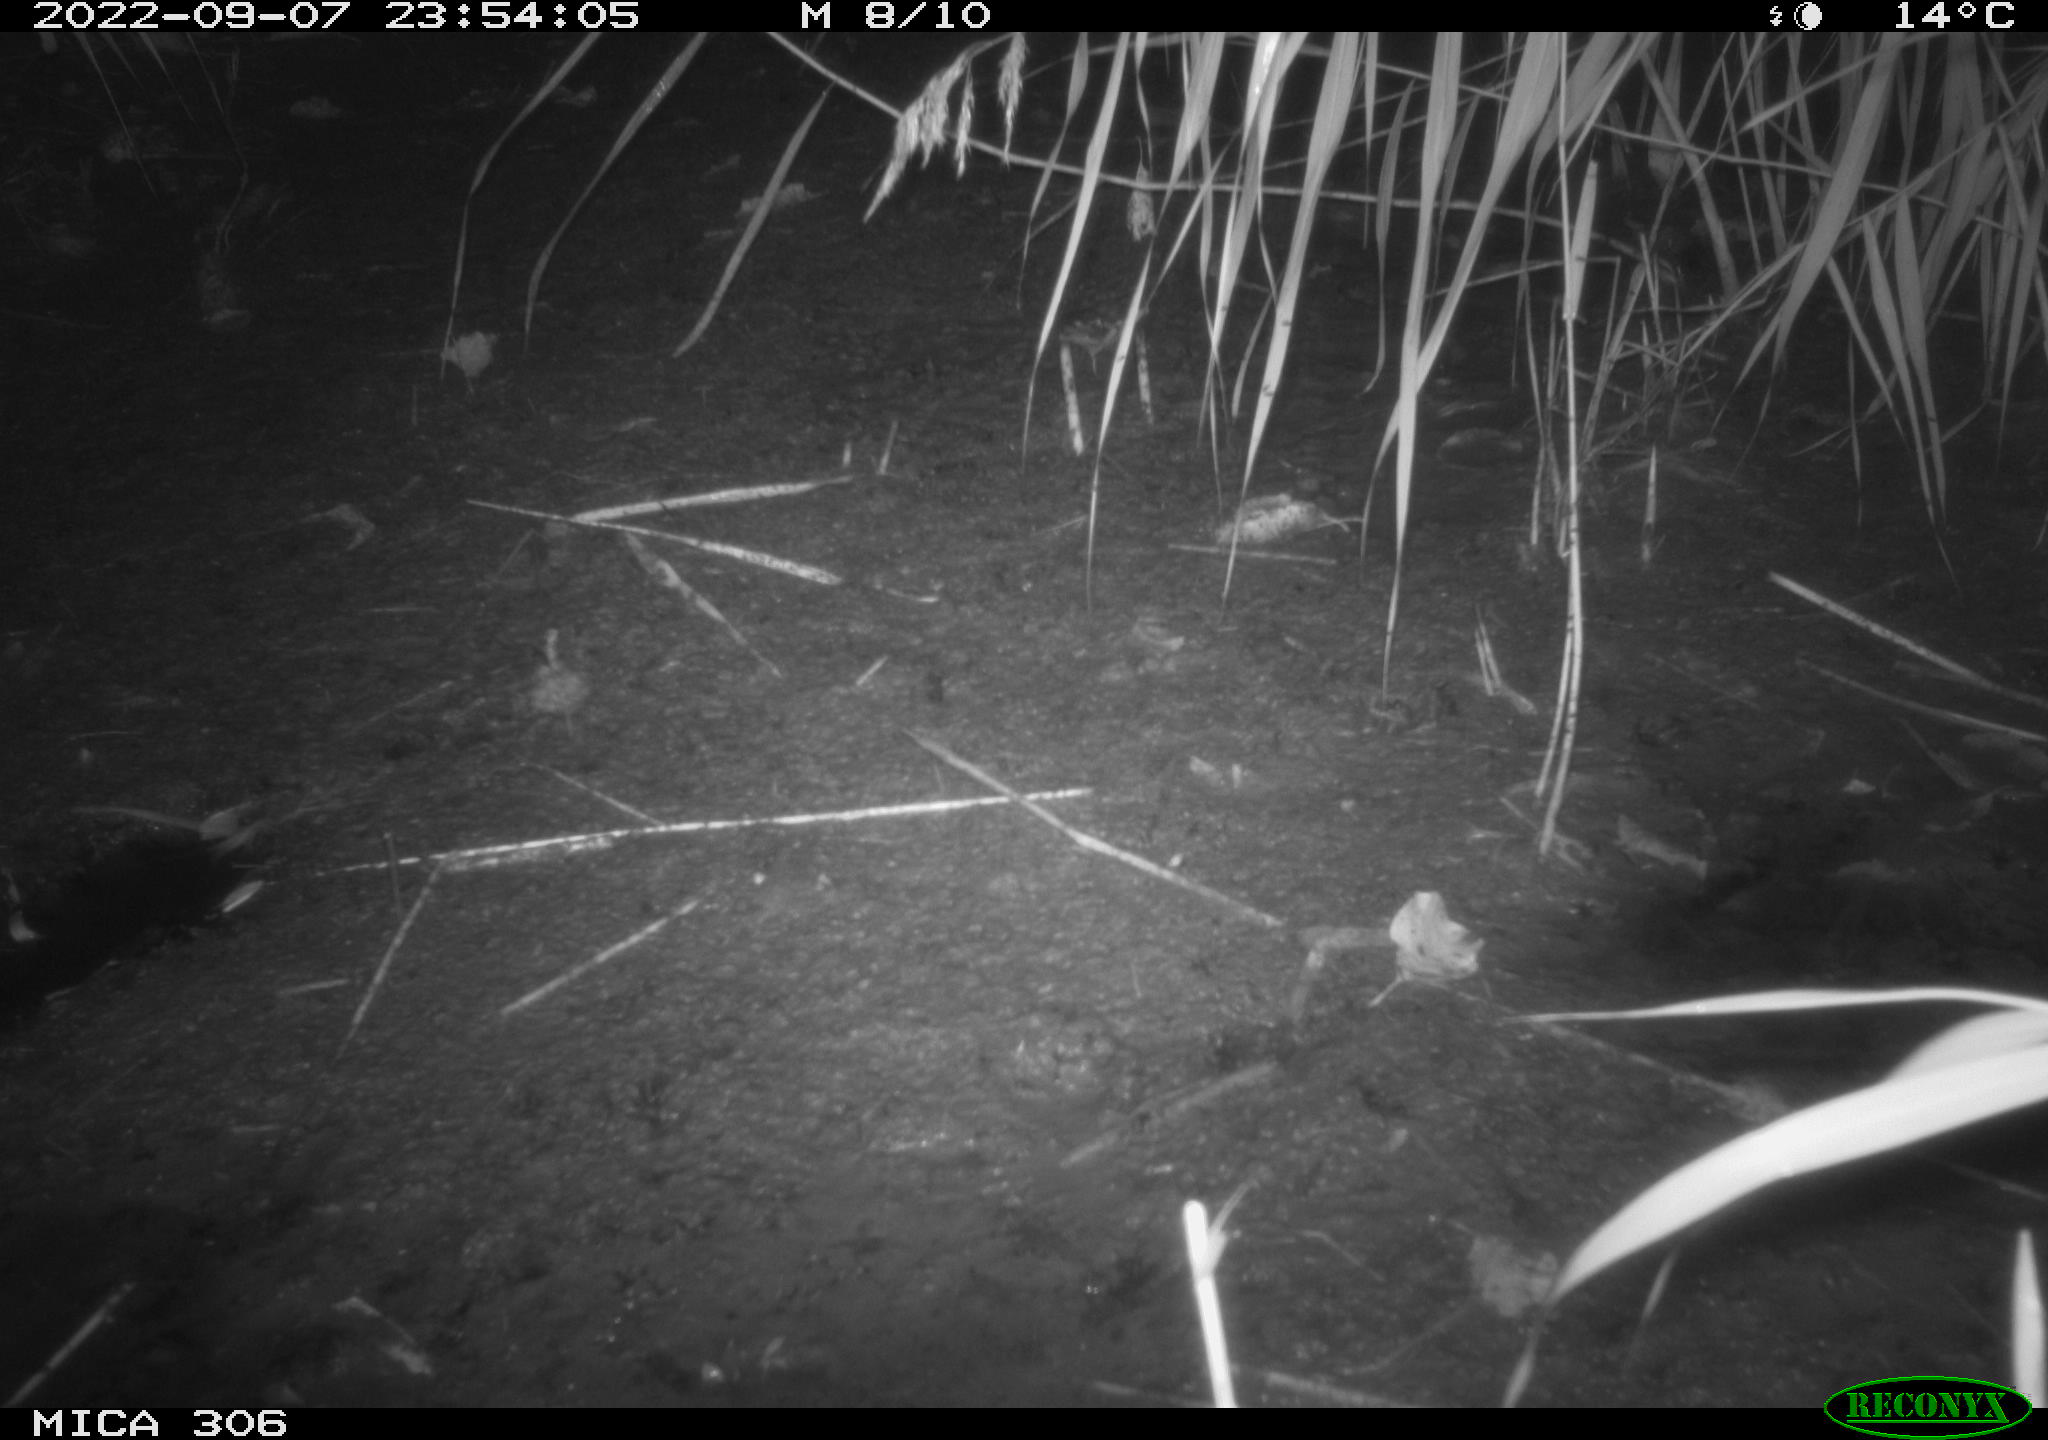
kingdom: Animalia
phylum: Chordata
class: Mammalia
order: Rodentia
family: Muridae
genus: Rattus
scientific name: Rattus norvegicus
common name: Brown rat
